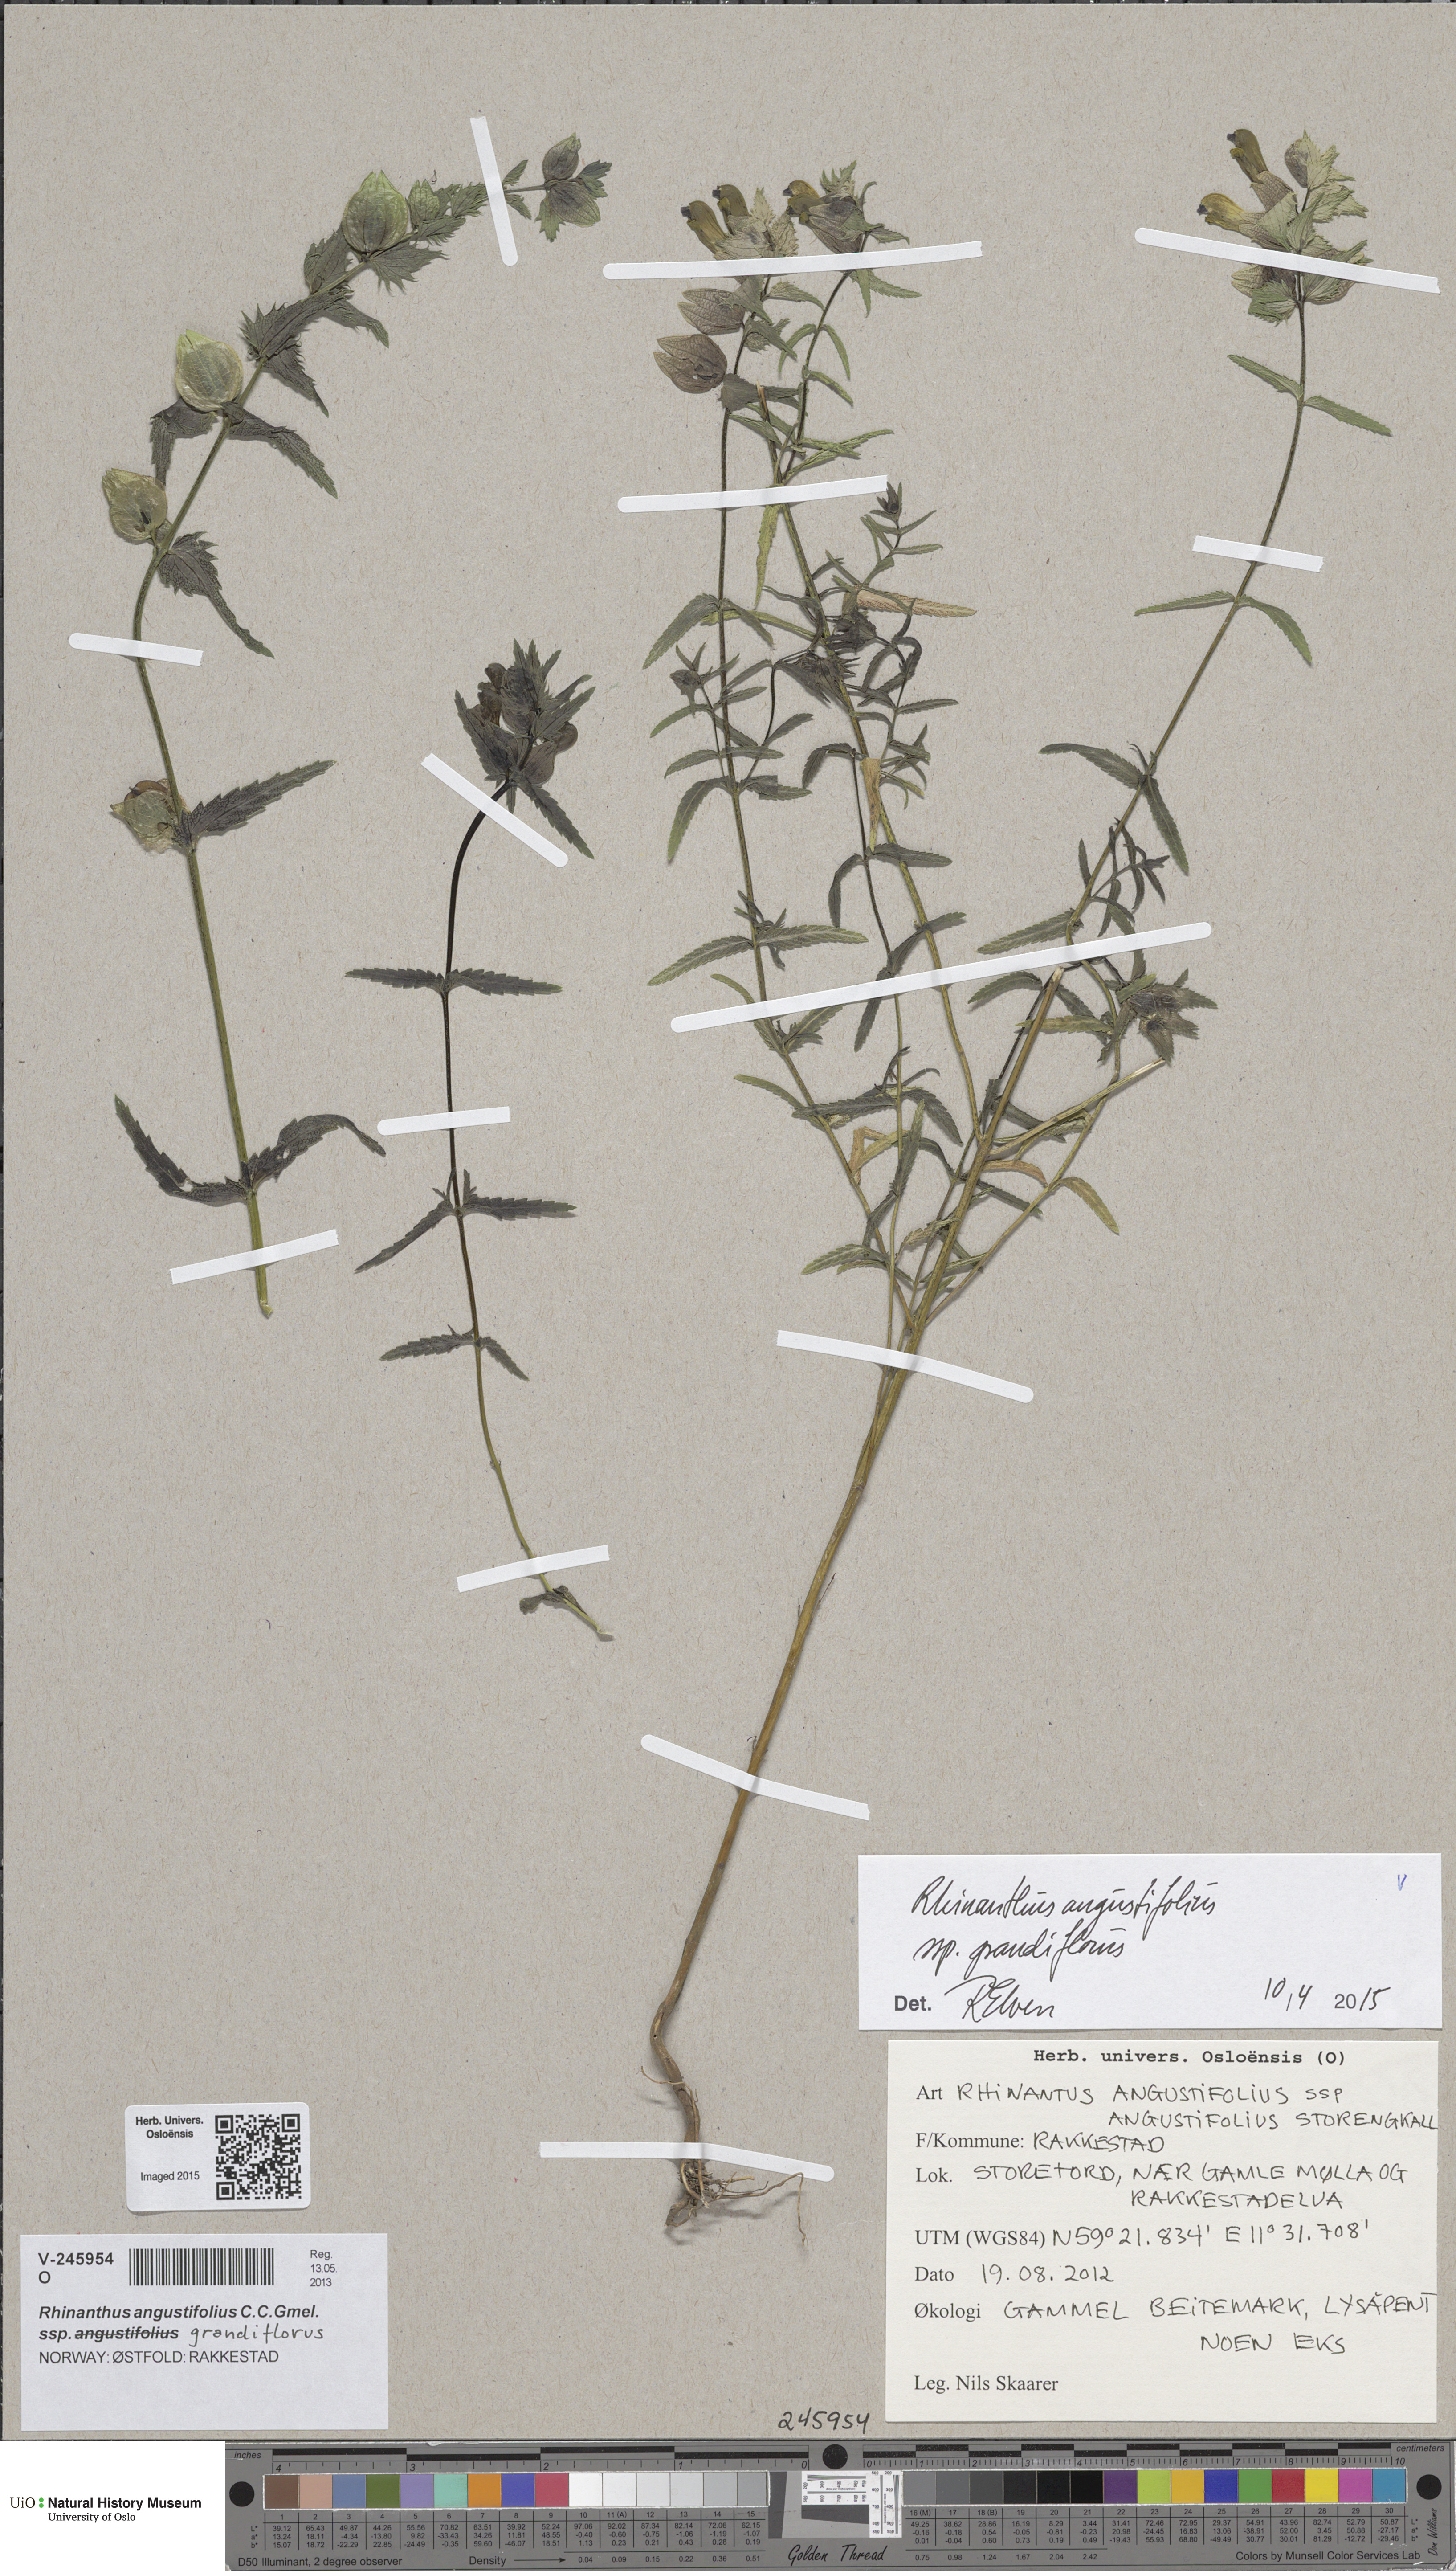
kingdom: Plantae
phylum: Tracheophyta
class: Magnoliopsida
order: Lamiales
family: Orobanchaceae
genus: Rhinanthus
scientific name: Rhinanthus serotinus
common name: Late-flowering yellow rattle
